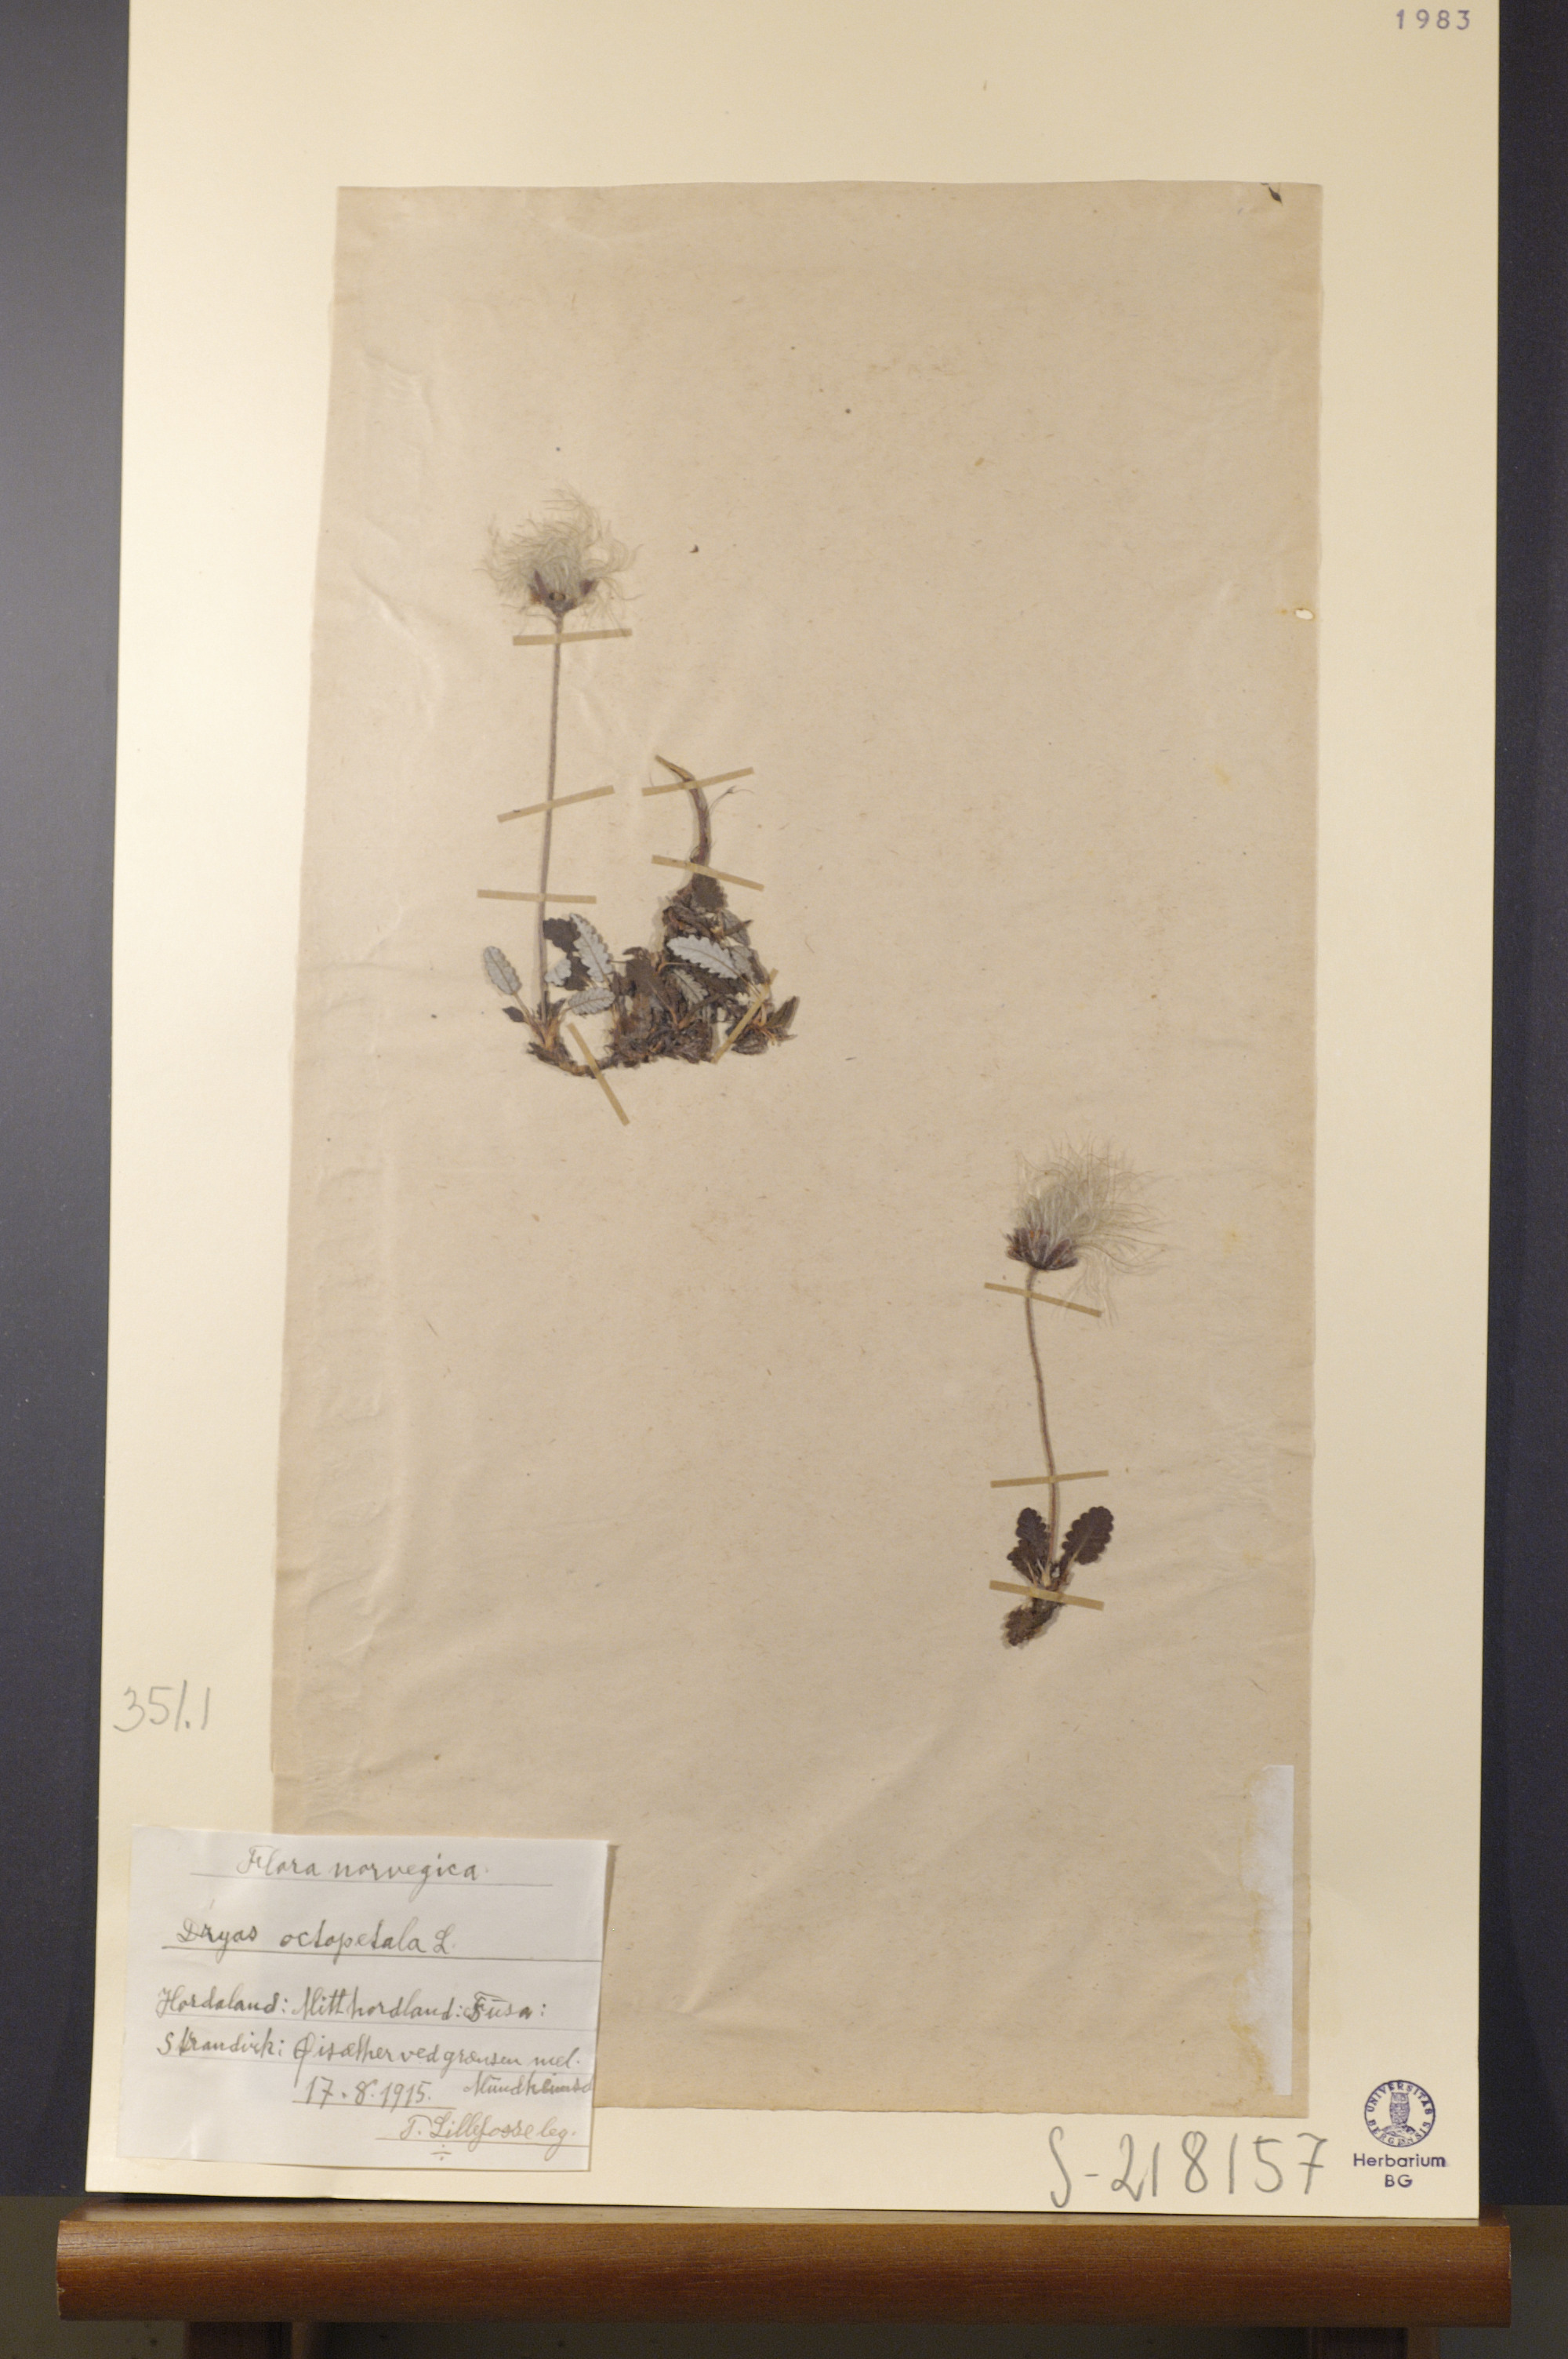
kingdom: Plantae
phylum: Tracheophyta
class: Magnoliopsida
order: Rosales
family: Rosaceae
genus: Dryas
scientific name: Dryas octopetala
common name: Eight-petal mountain-avens
